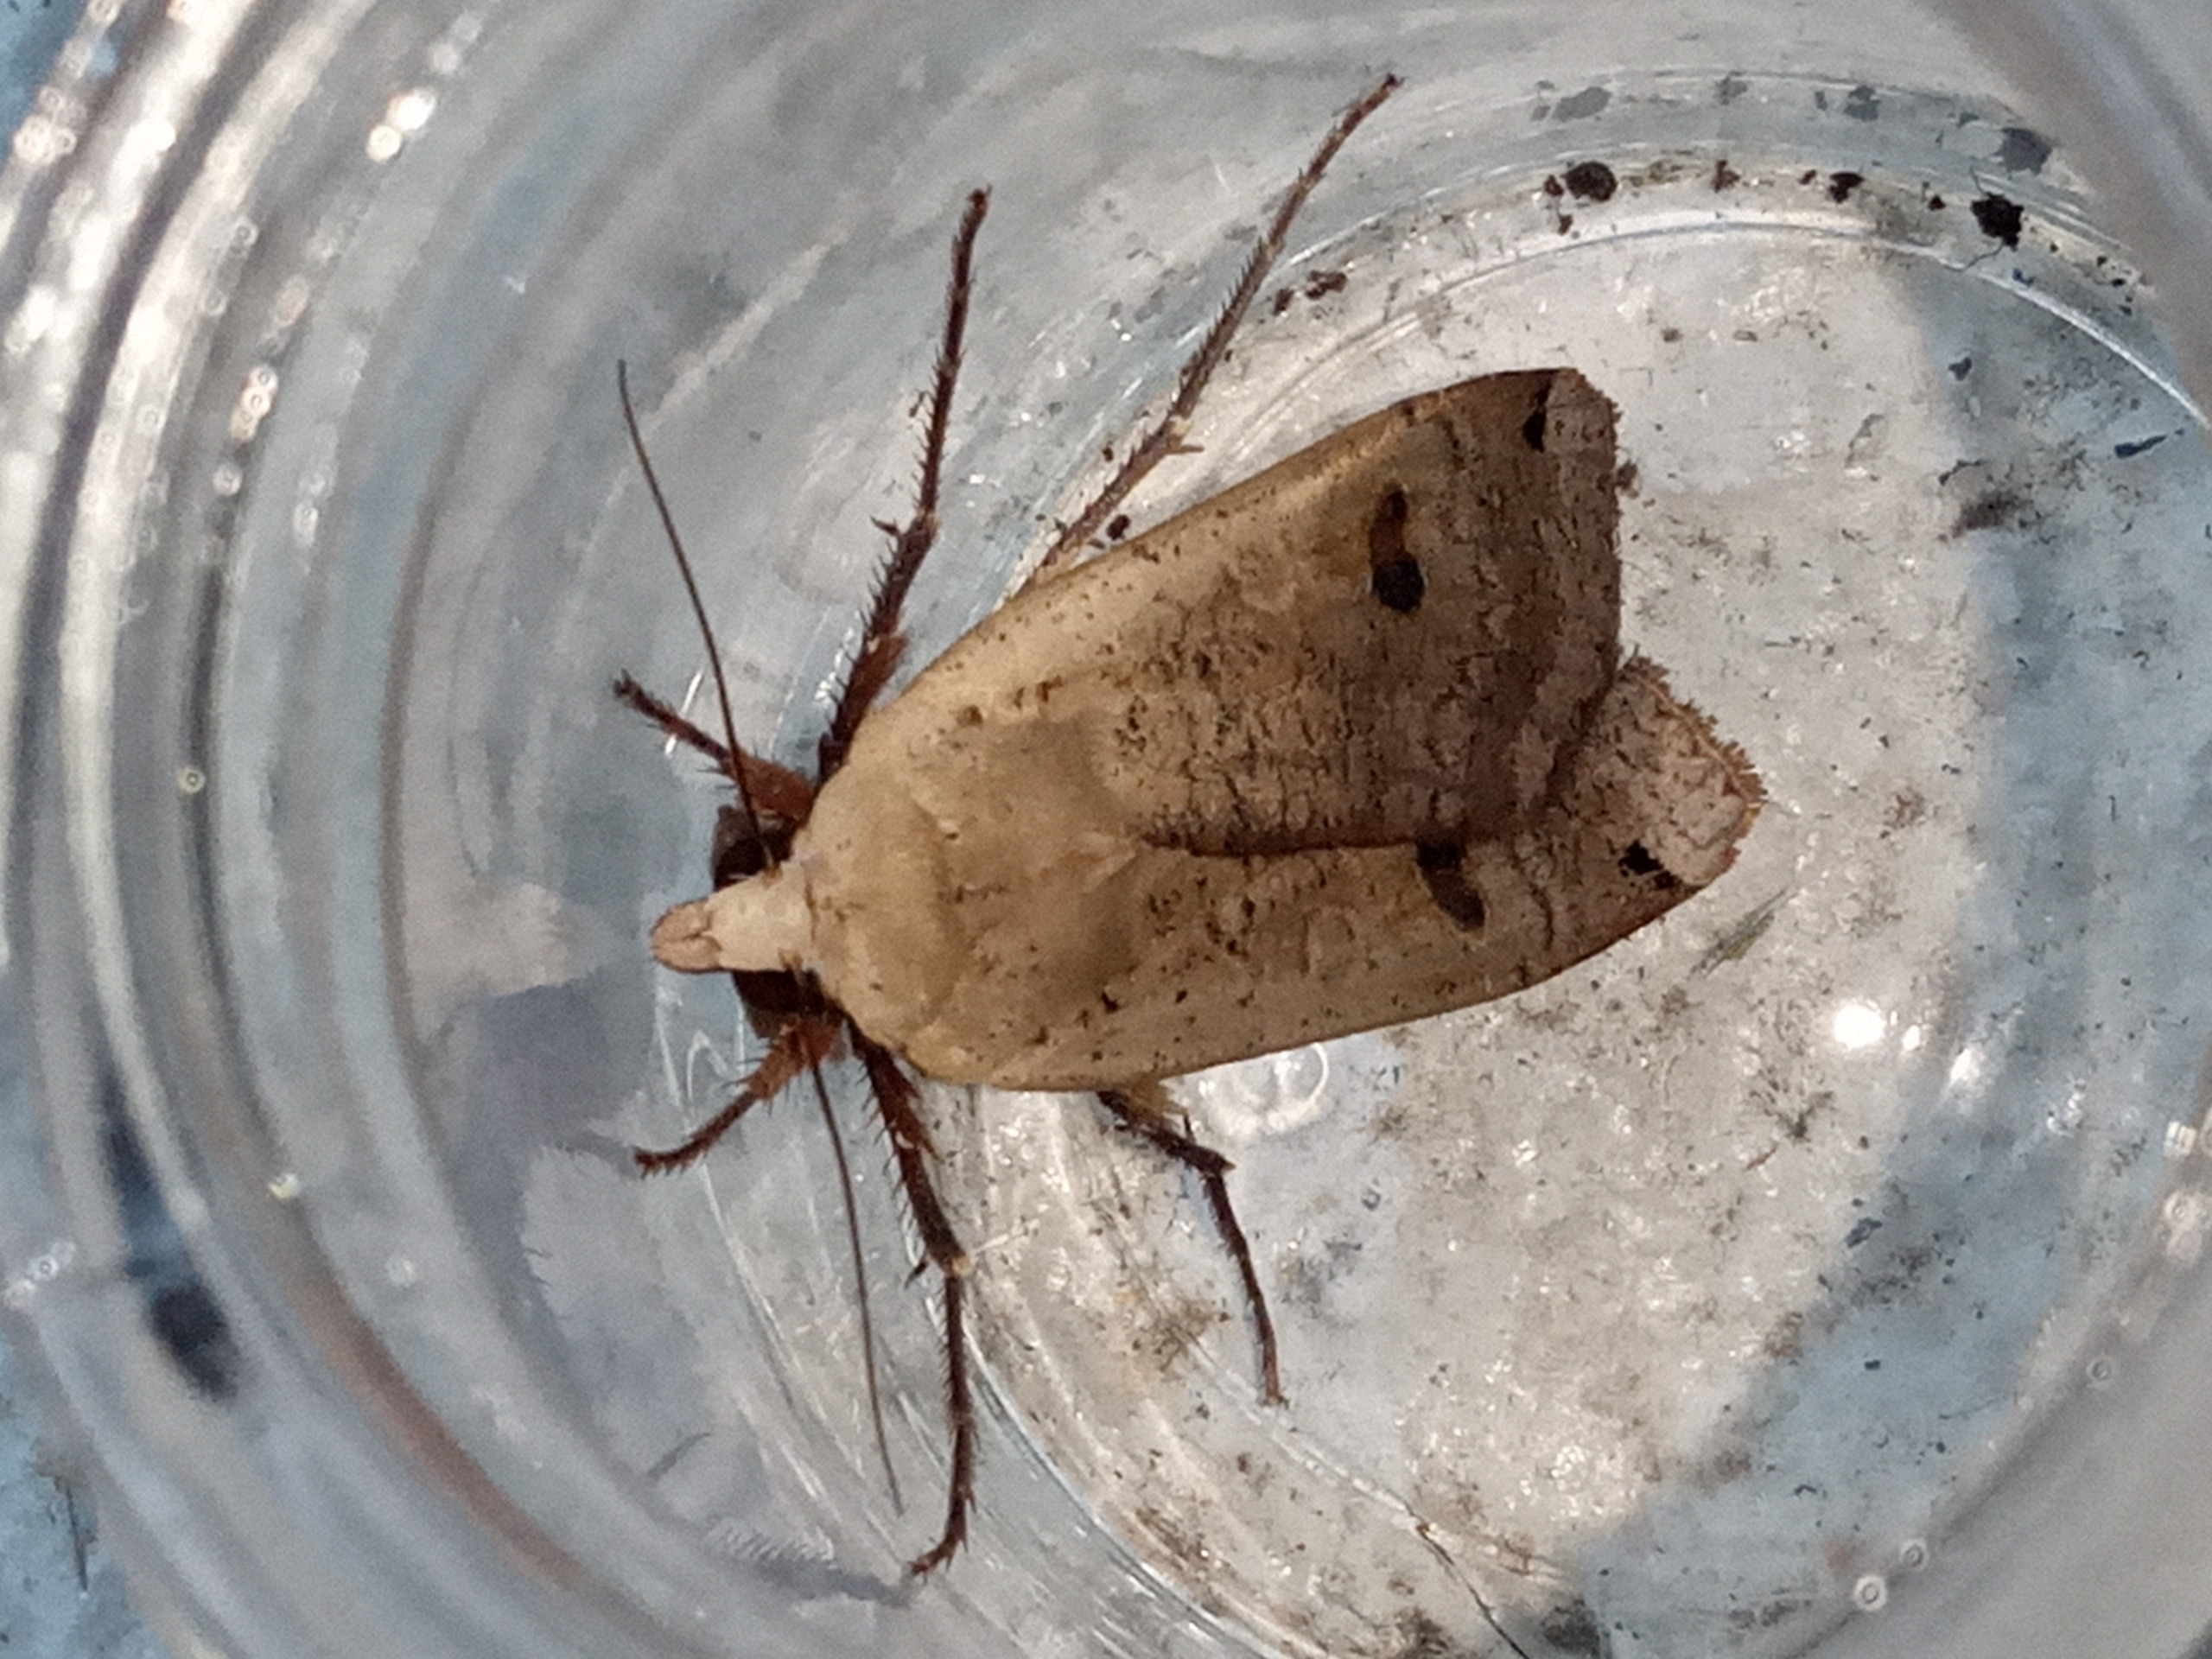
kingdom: Animalia
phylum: Arthropoda
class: Insecta
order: Lepidoptera
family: Noctuidae
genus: Noctua
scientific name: Noctua pronuba
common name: Stor smutugle
